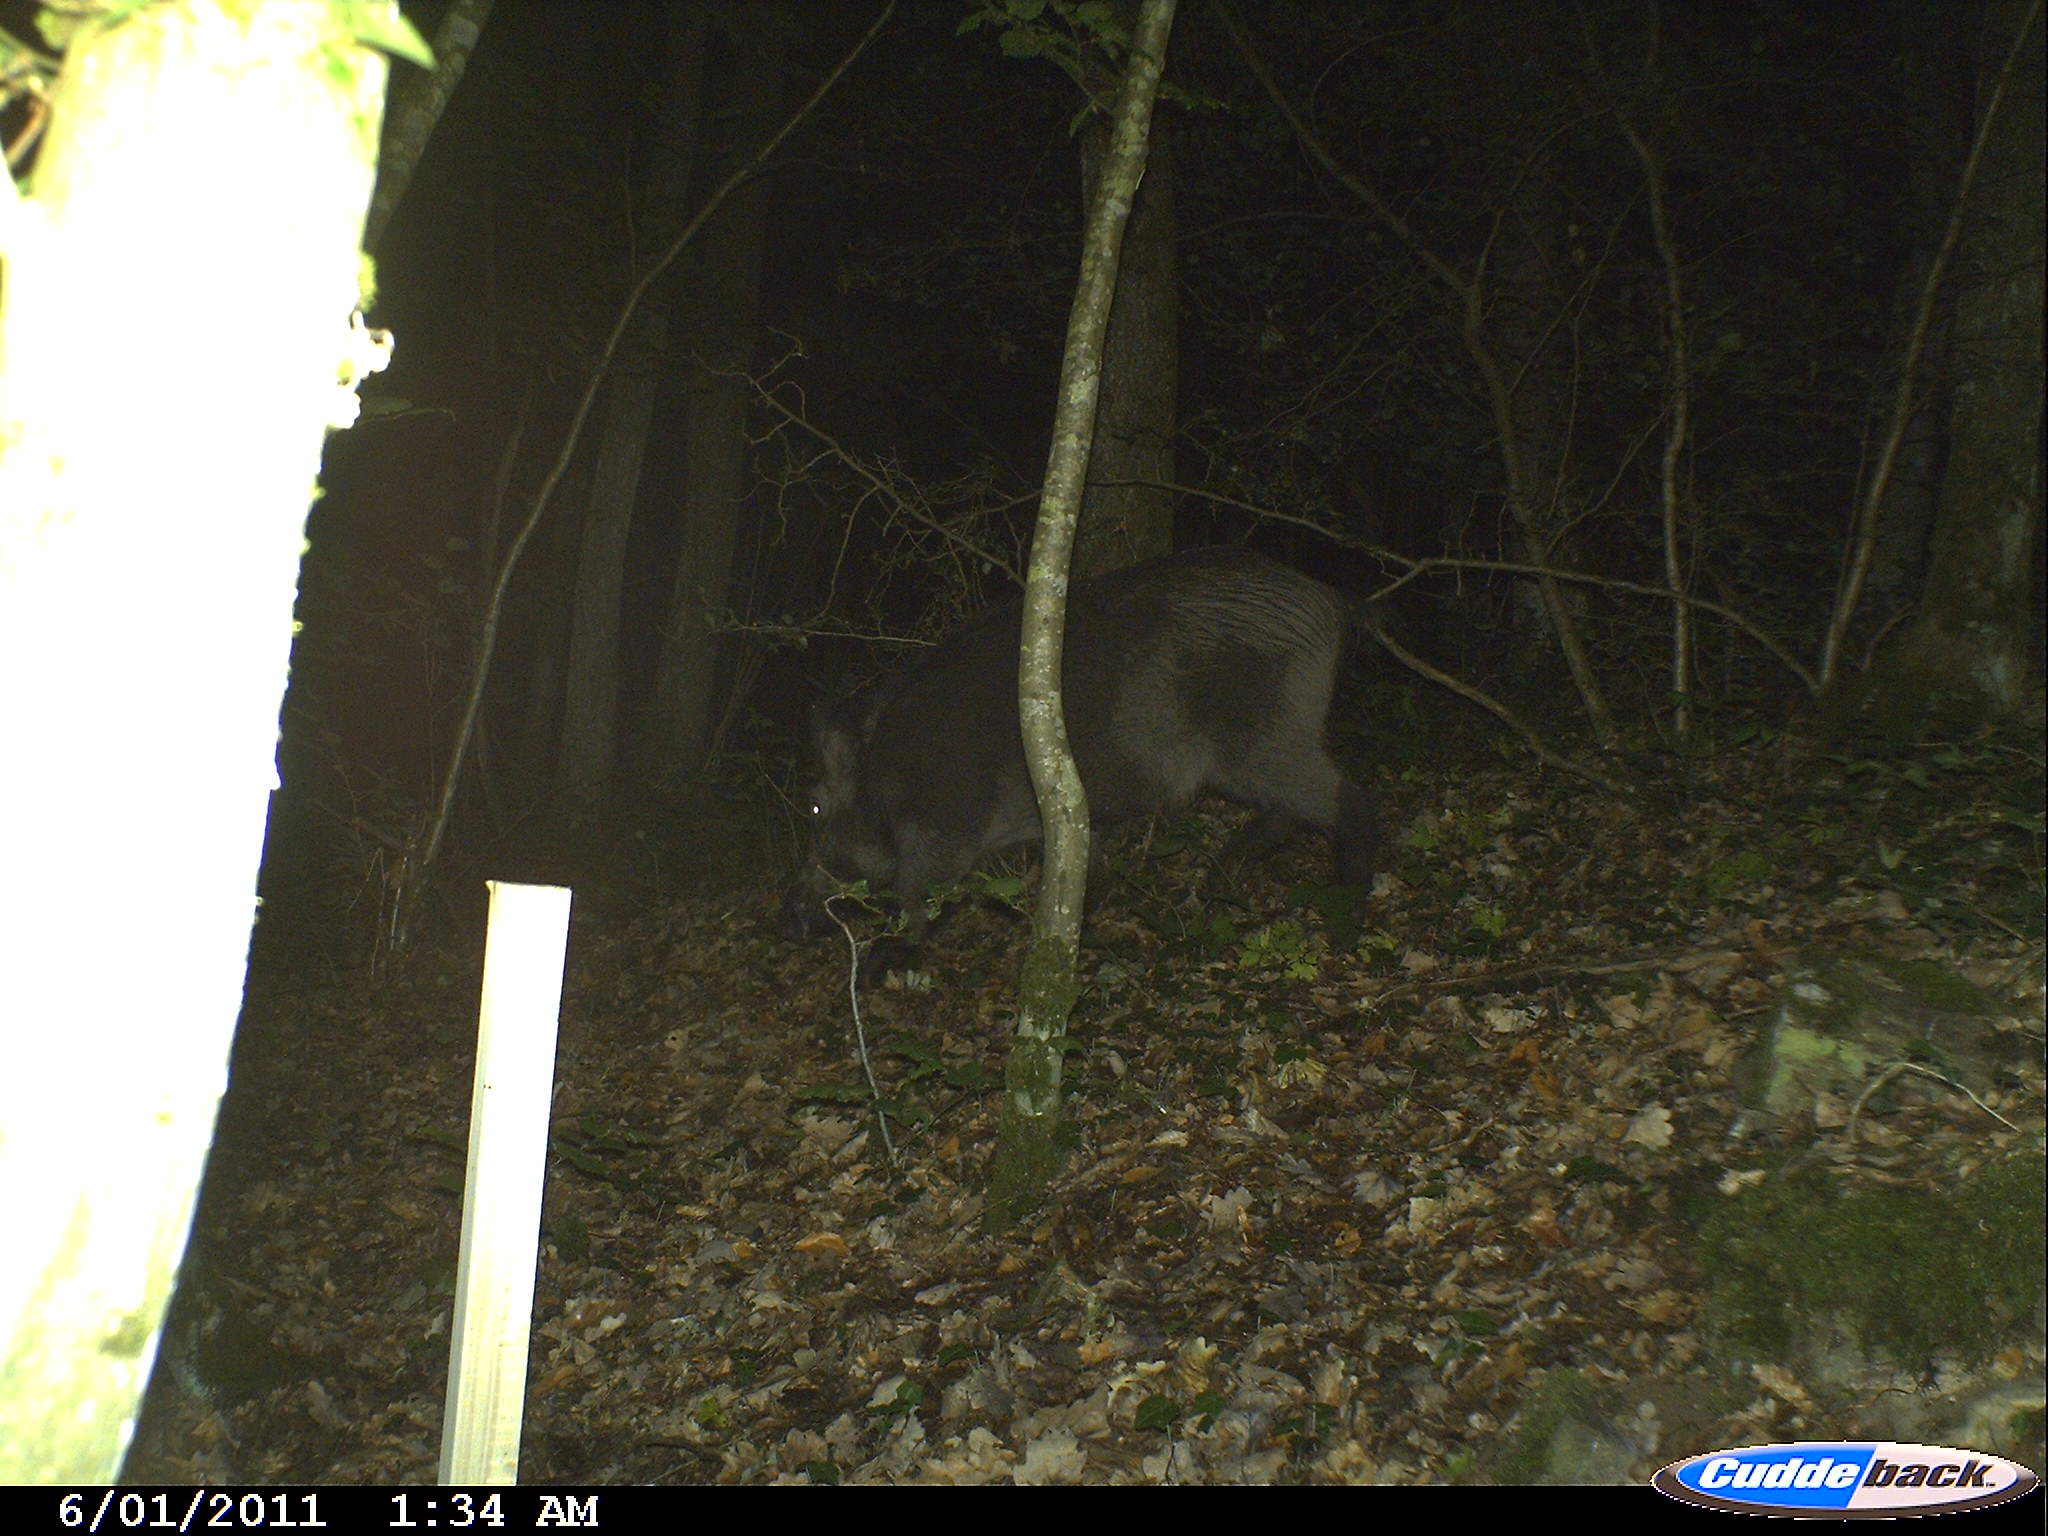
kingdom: Animalia
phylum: Chordata
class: Mammalia
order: Artiodactyla
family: Suidae
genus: Sus
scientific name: Sus scrofa
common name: Wild boar
